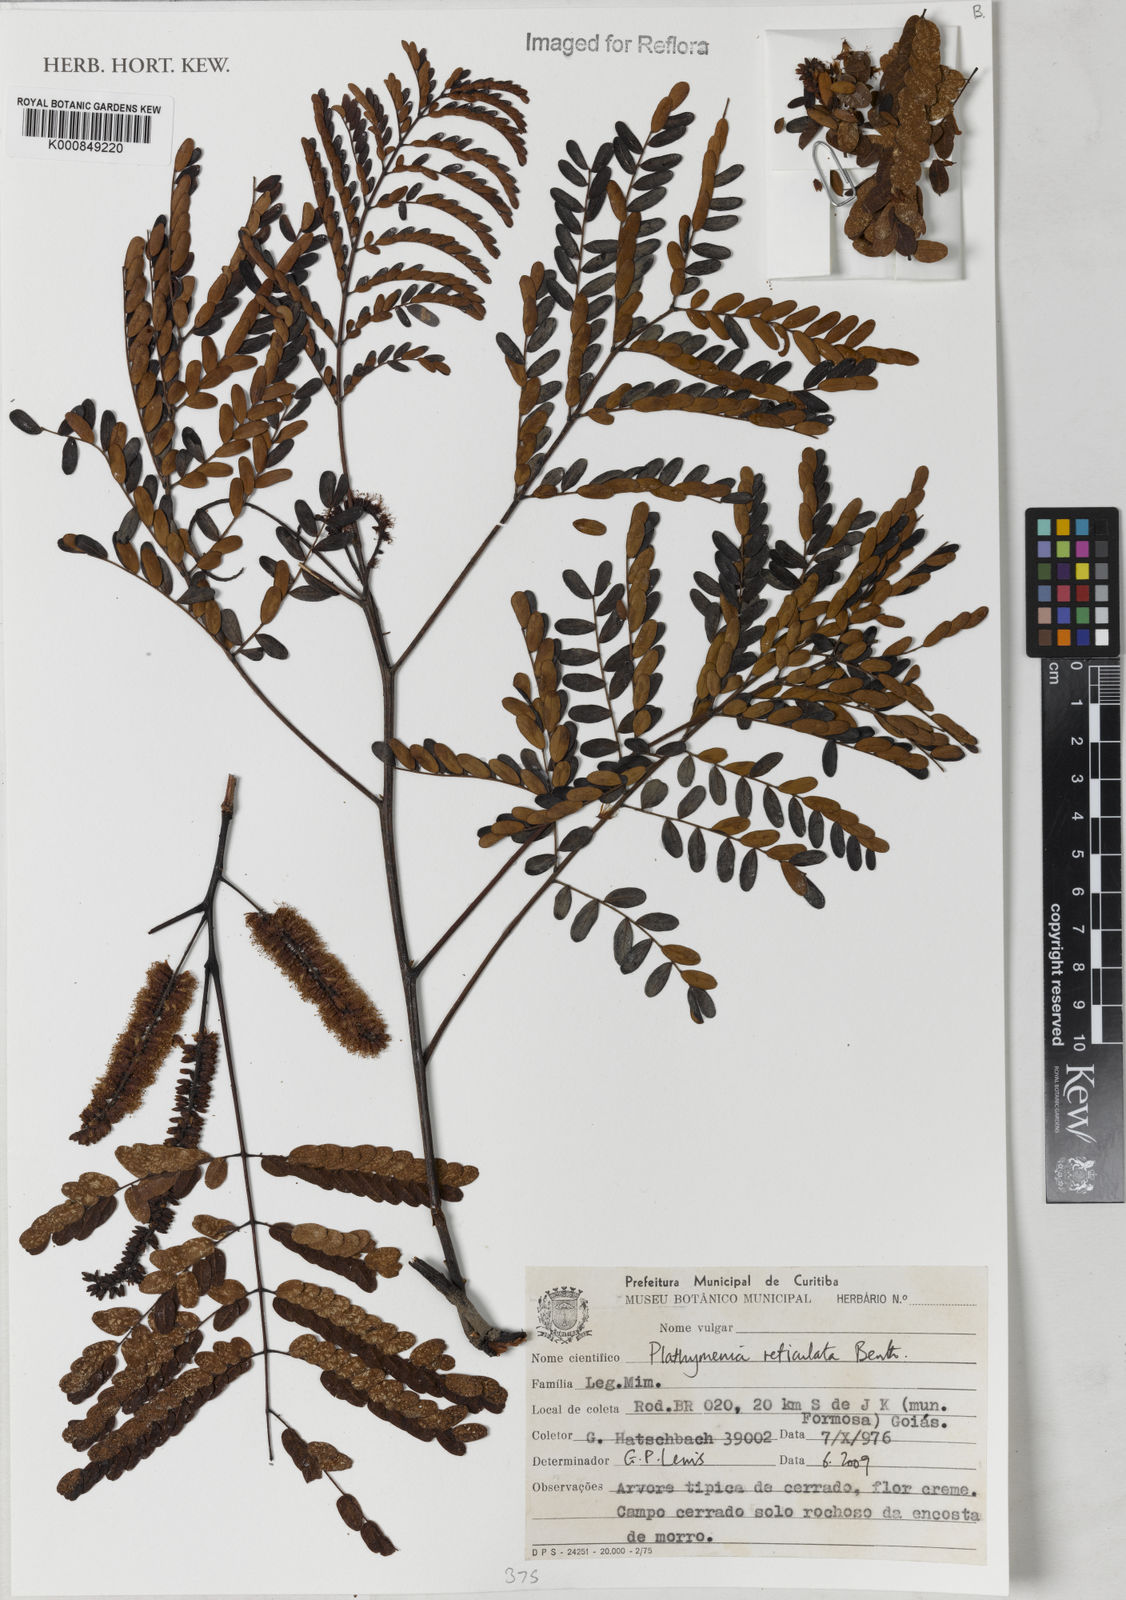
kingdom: Plantae
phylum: Tracheophyta
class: Magnoliopsida
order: Fabales
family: Fabaceae
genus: Plathymenia
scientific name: Plathymenia reticulata
